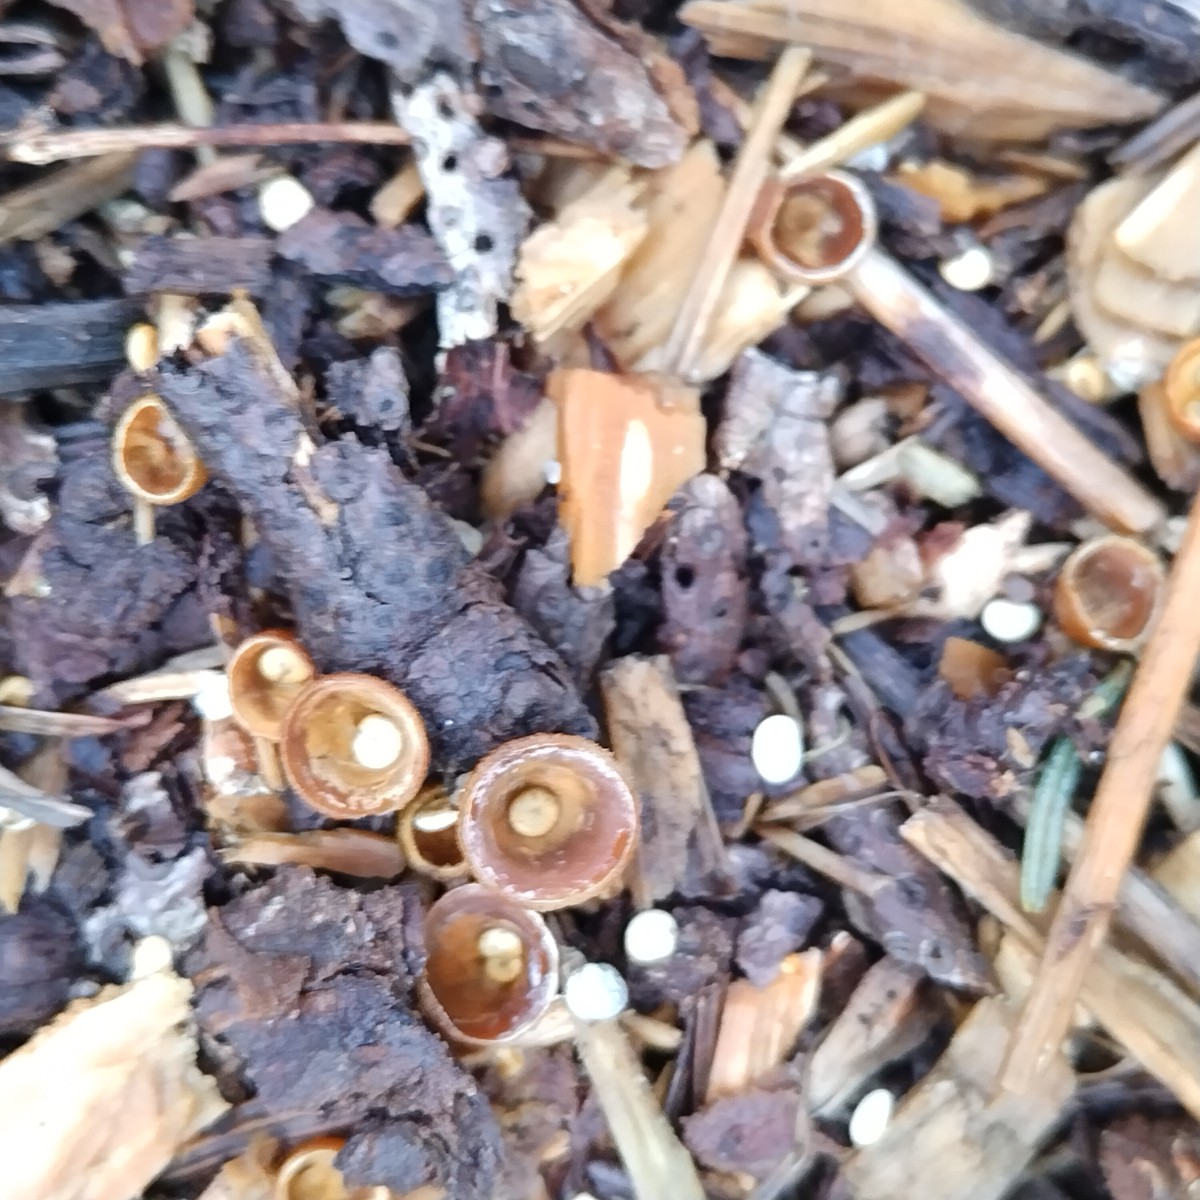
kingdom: Fungi
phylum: Basidiomycota
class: Agaricomycetes
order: Agaricales
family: Nidulariaceae
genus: Crucibulum
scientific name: Crucibulum crucibuliforme
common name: krukkesvamp
